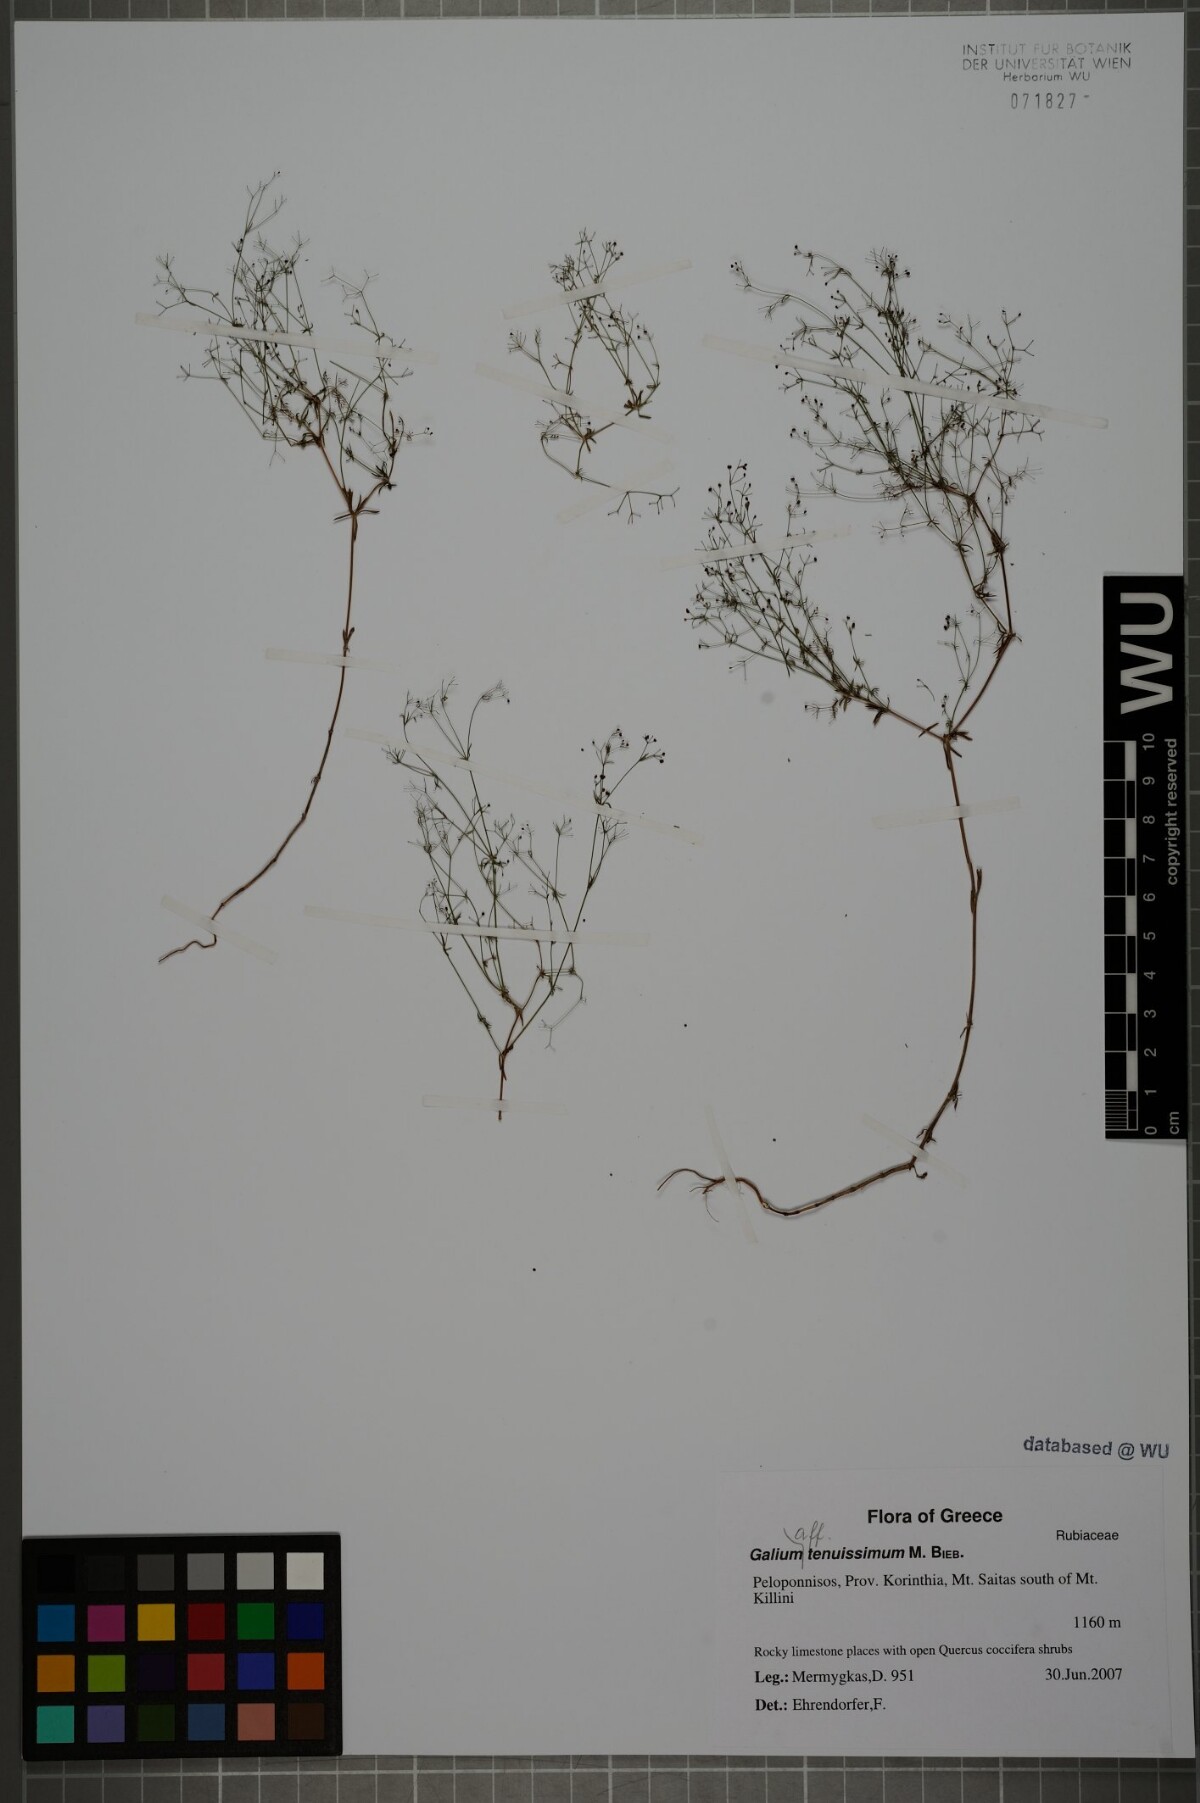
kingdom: Plantae
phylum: Tracheophyta
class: Magnoliopsida
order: Gentianales
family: Rubiaceae
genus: Galium
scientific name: Galium tenuissimum
